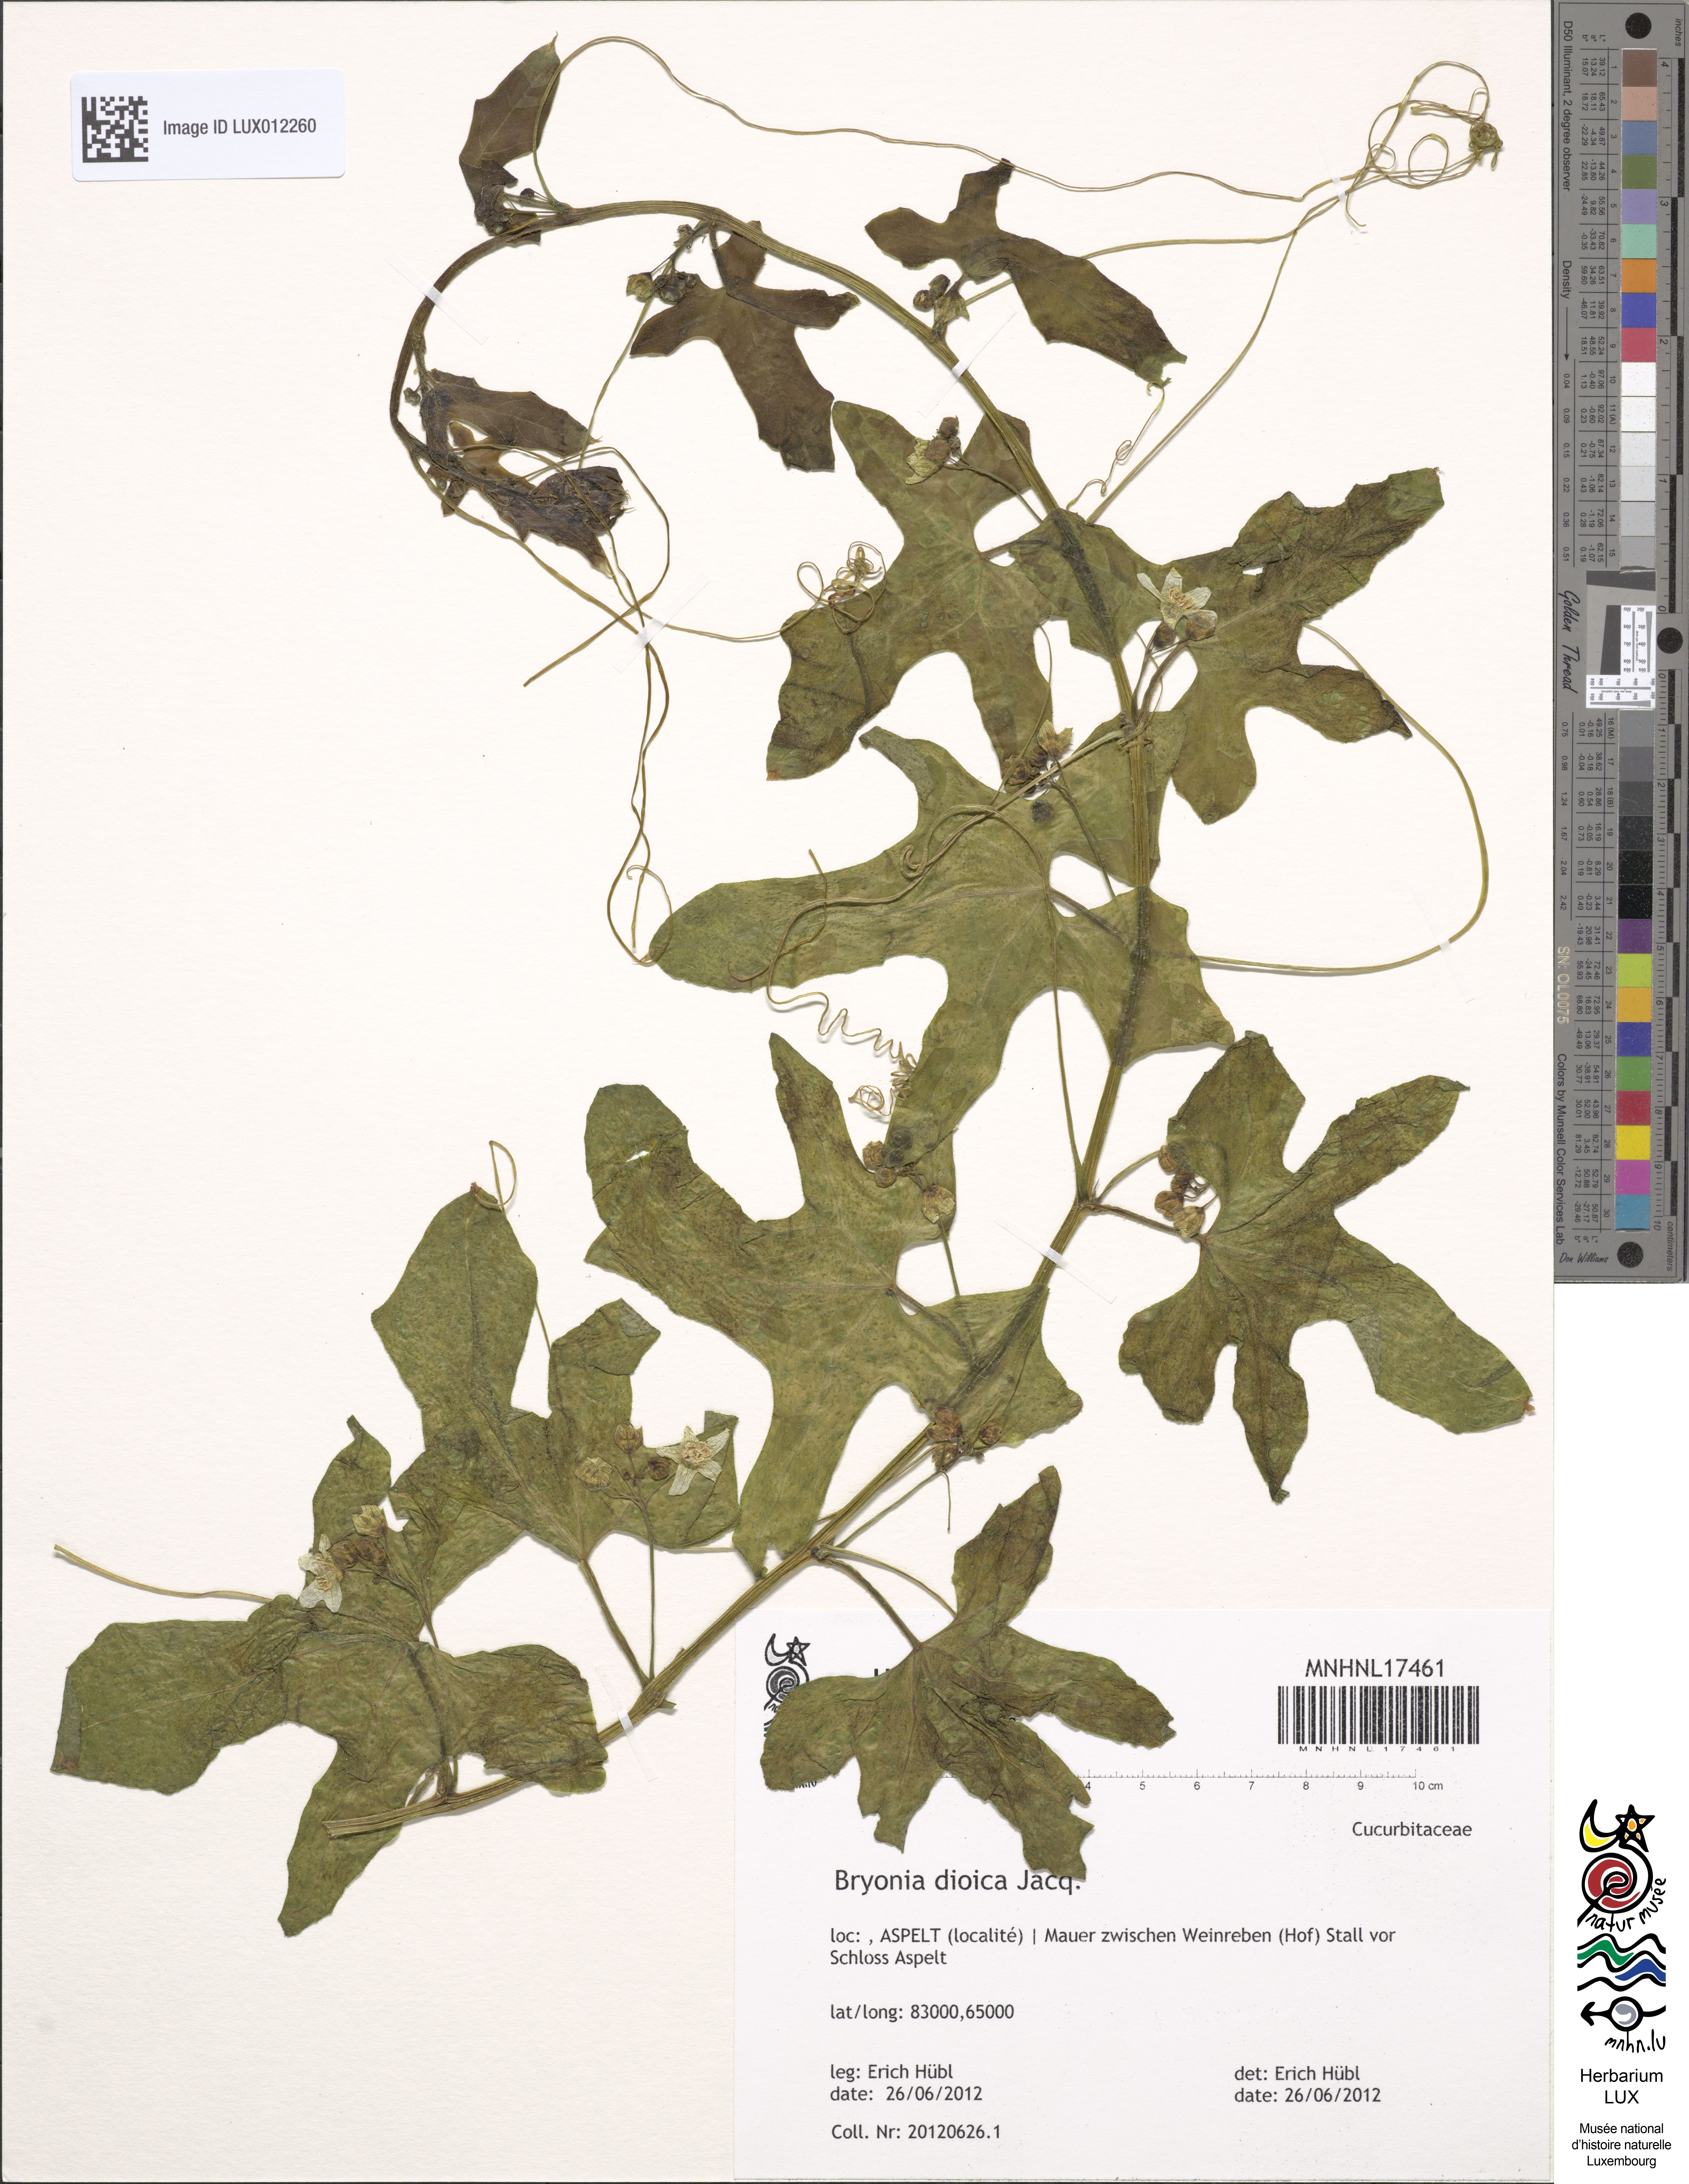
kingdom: Plantae
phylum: Tracheophyta
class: Magnoliopsida
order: Cucurbitales
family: Cucurbitaceae
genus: Bryonia
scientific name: Bryonia dioica
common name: White bryony
